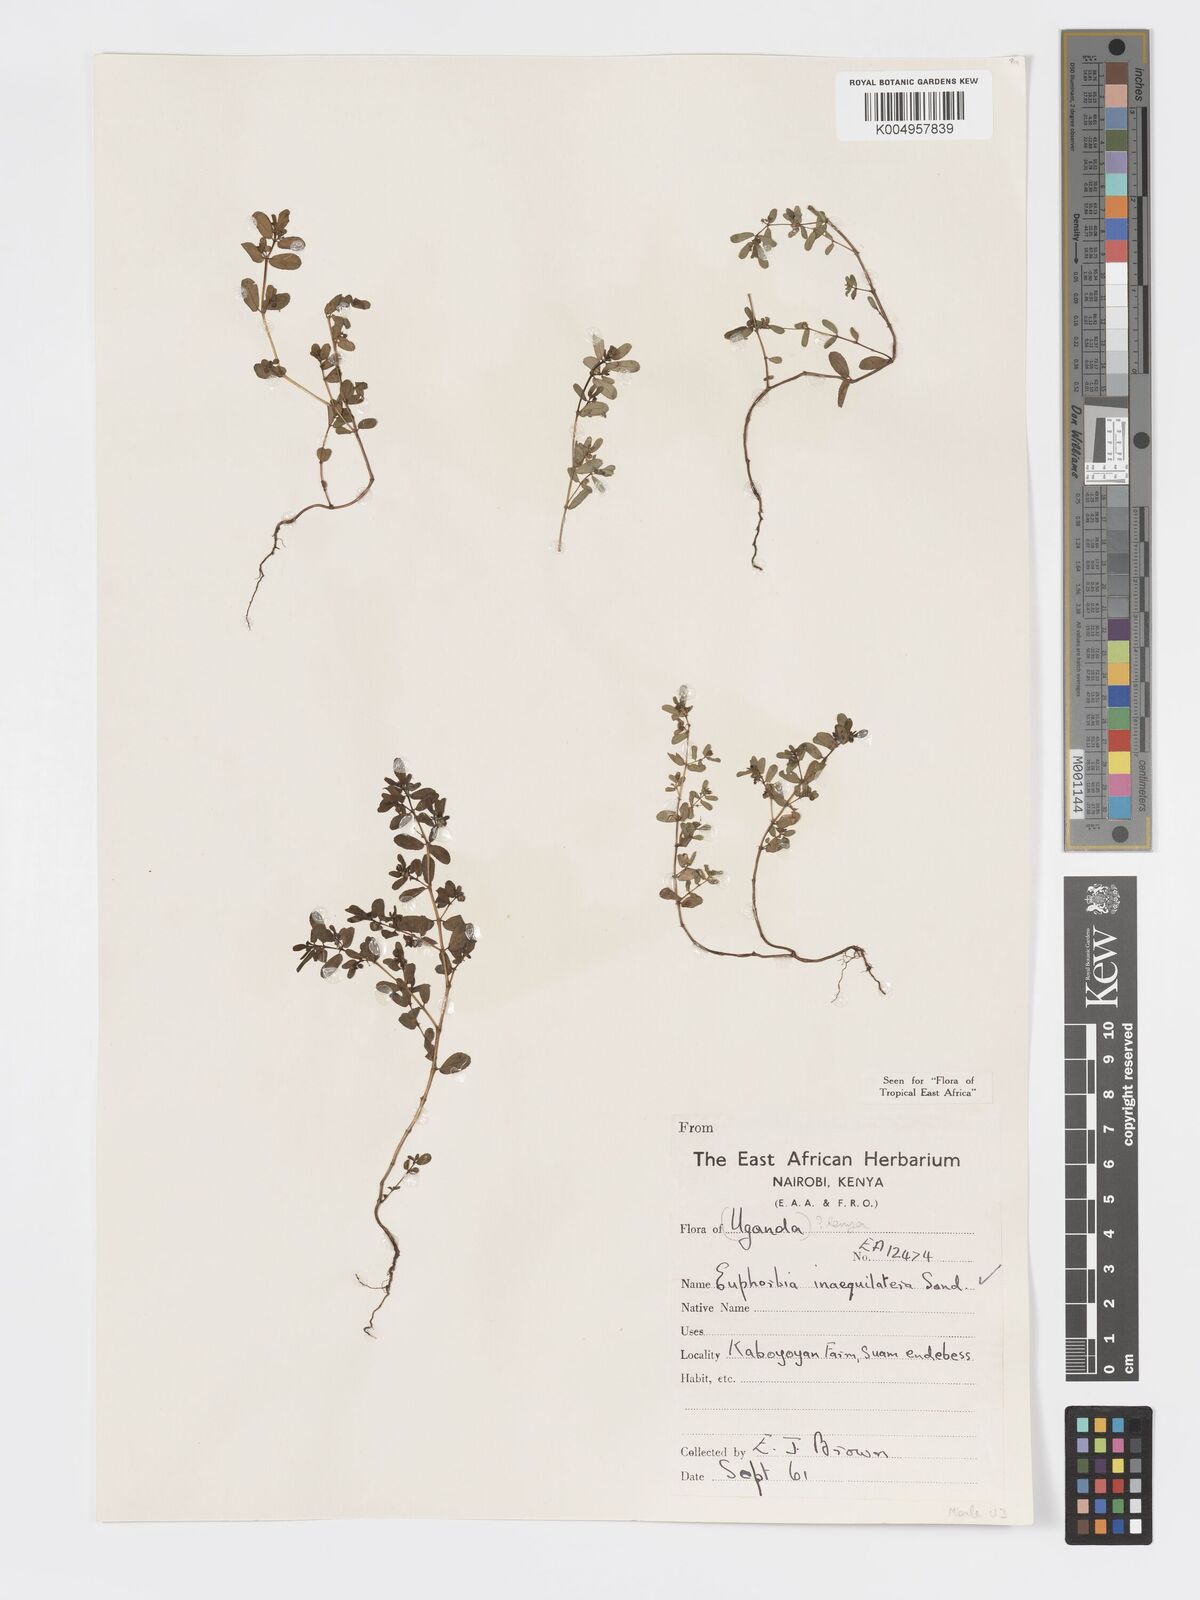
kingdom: Plantae
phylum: Tracheophyta
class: Magnoliopsida
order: Malpighiales
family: Euphorbiaceae
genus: Euphorbia
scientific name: Euphorbia inaequilatera
